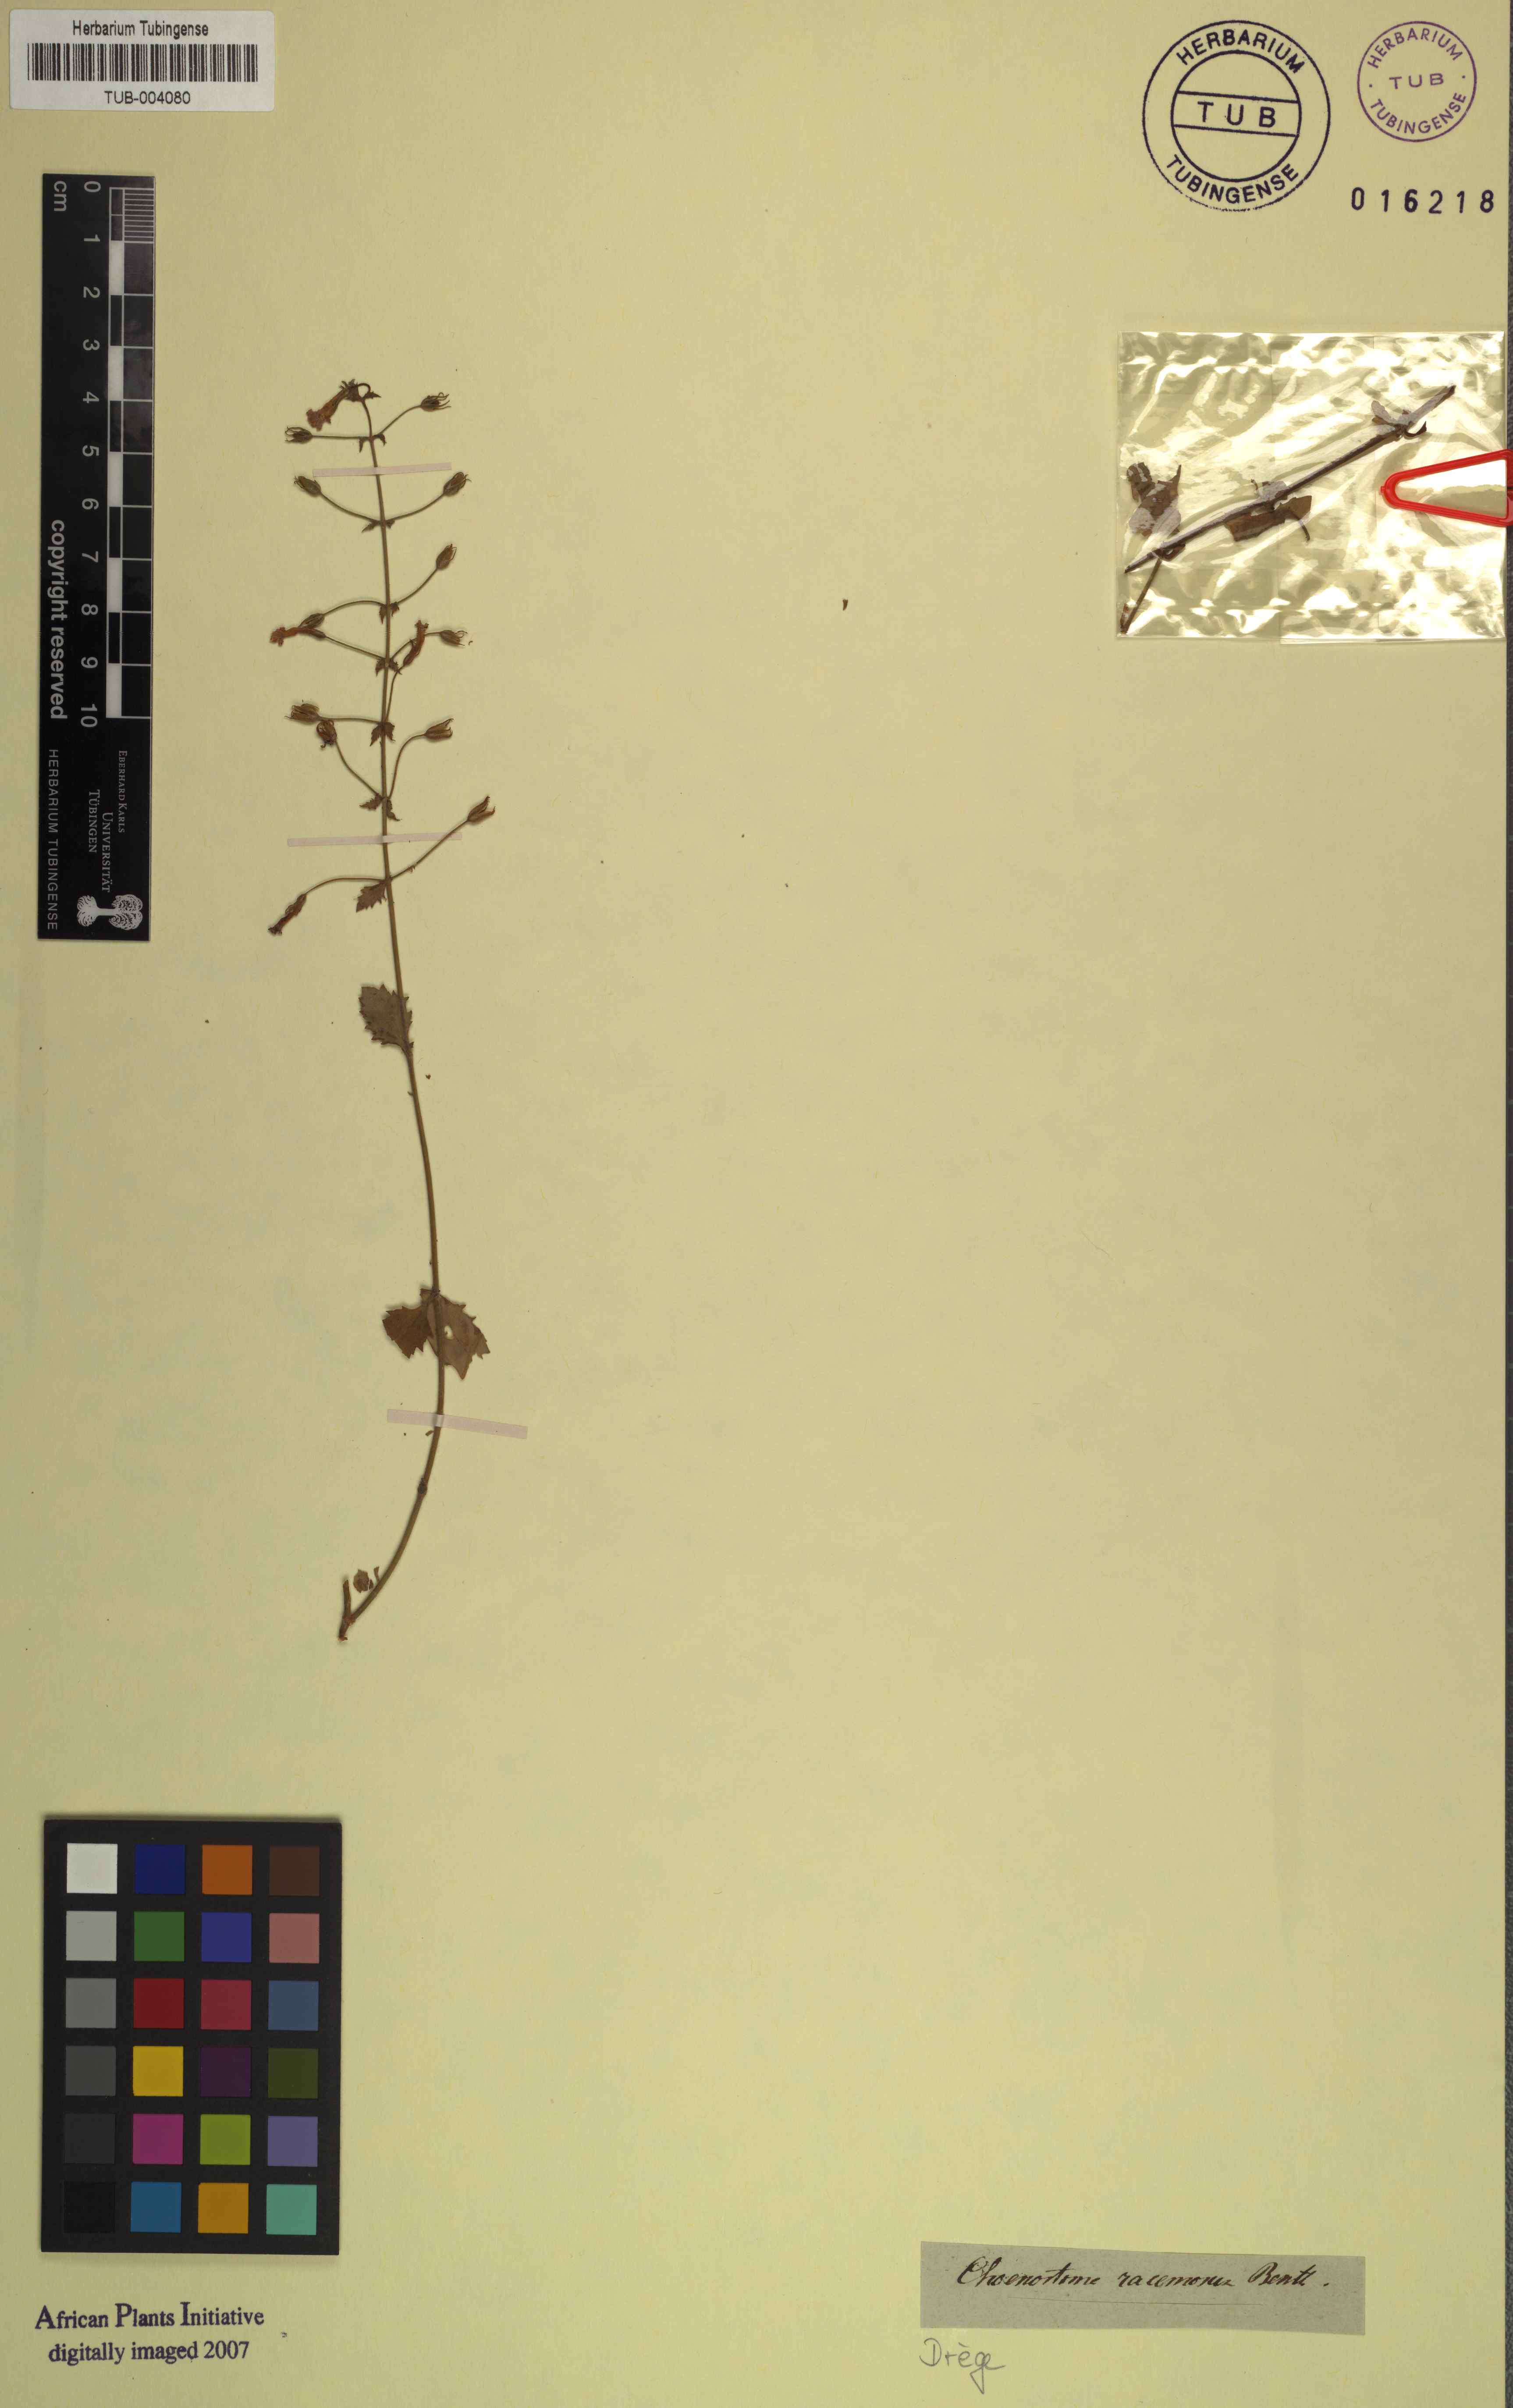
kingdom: Plantae
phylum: Tracheophyta
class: Magnoliopsida
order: Lamiales
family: Scrophulariaceae
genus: Chaenostoma
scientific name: Chaenostoma racemosum
